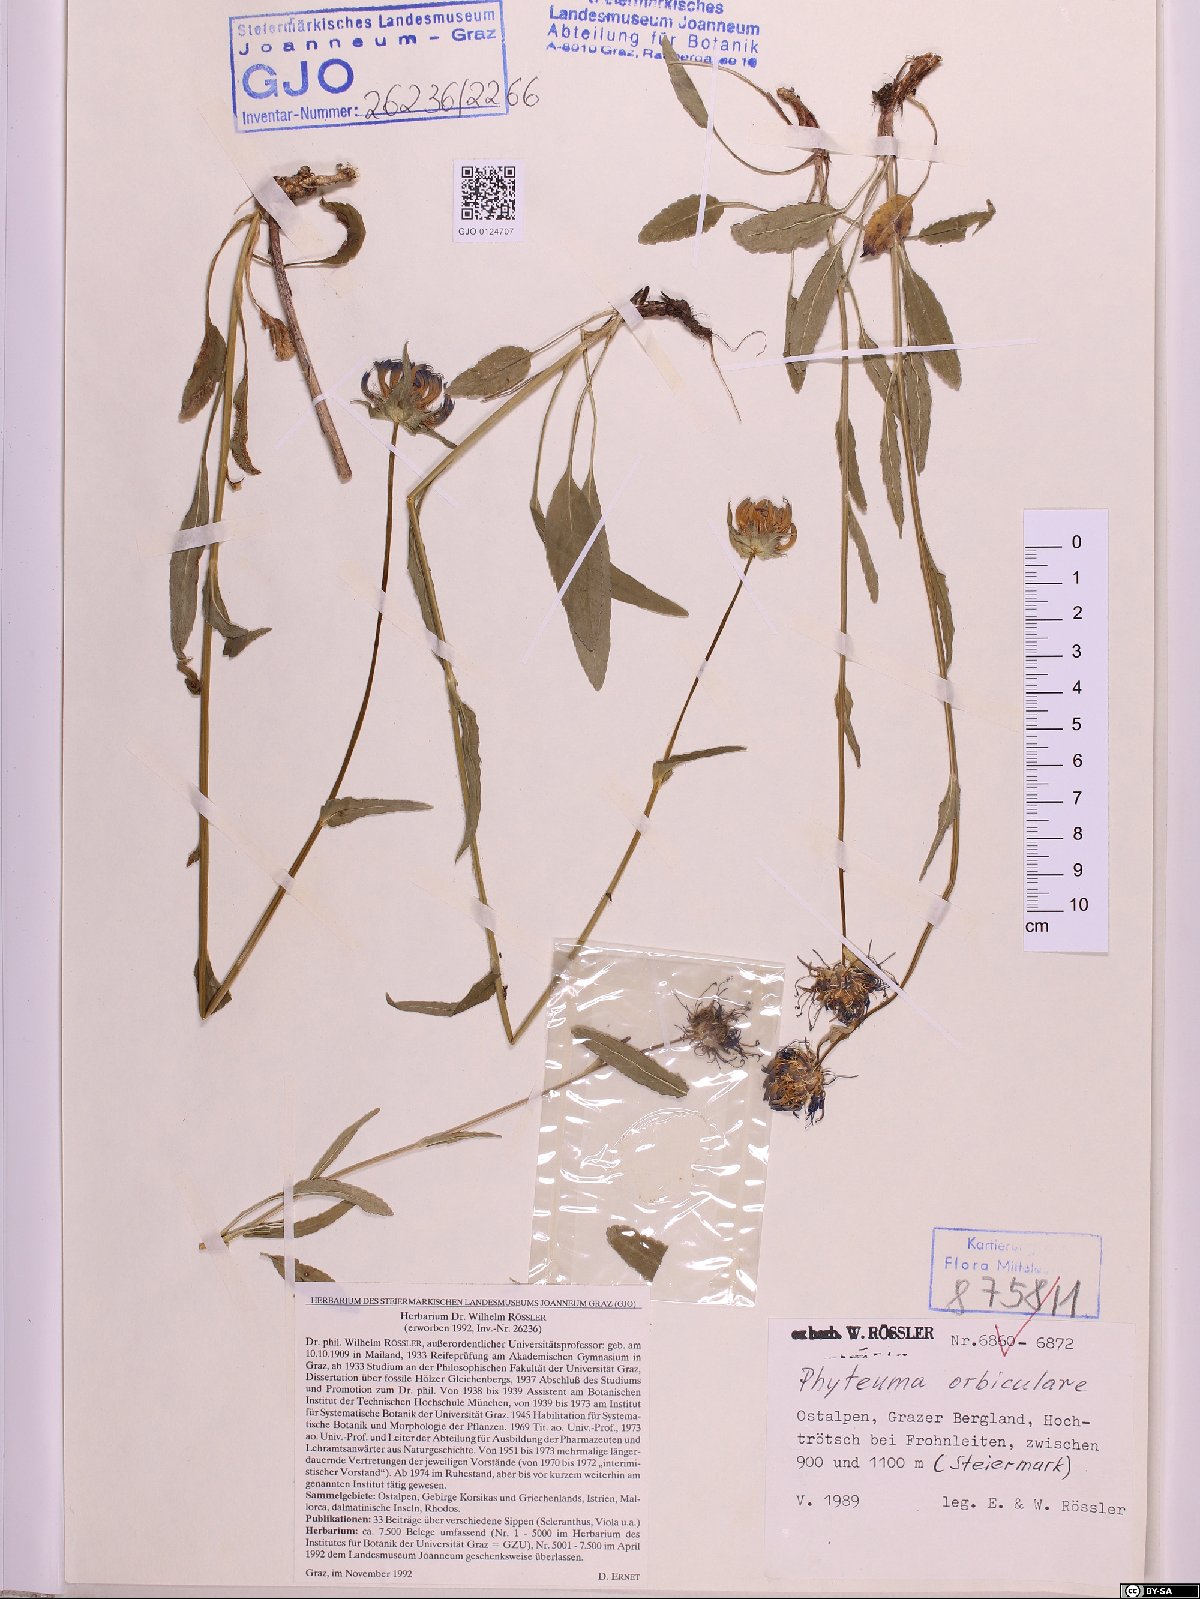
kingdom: Plantae
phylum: Tracheophyta
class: Magnoliopsida
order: Asterales
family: Campanulaceae
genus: Phyteuma
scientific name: Phyteuma orbiculare
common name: Round-headed rampion
